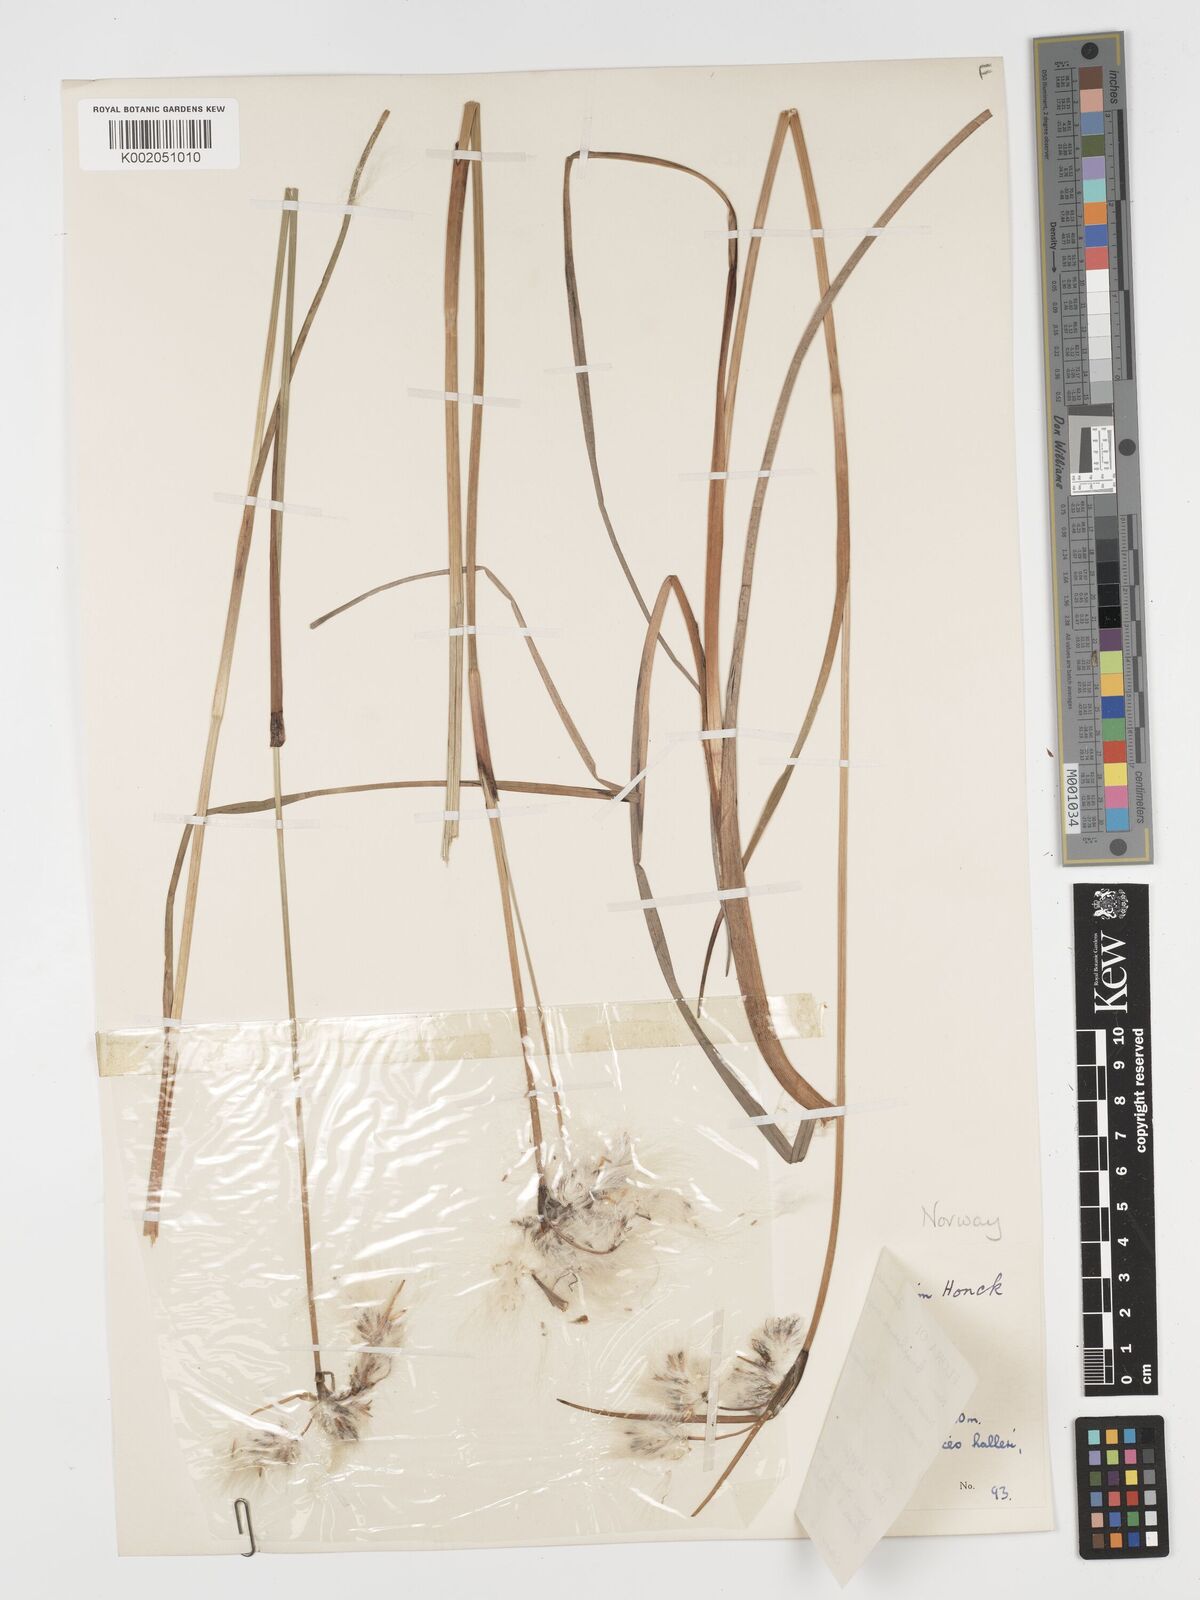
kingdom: Plantae
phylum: Tracheophyta
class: Liliopsida
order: Poales
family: Cyperaceae
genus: Eriophorum
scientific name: Eriophorum angustifolium
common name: Common cottongrass
